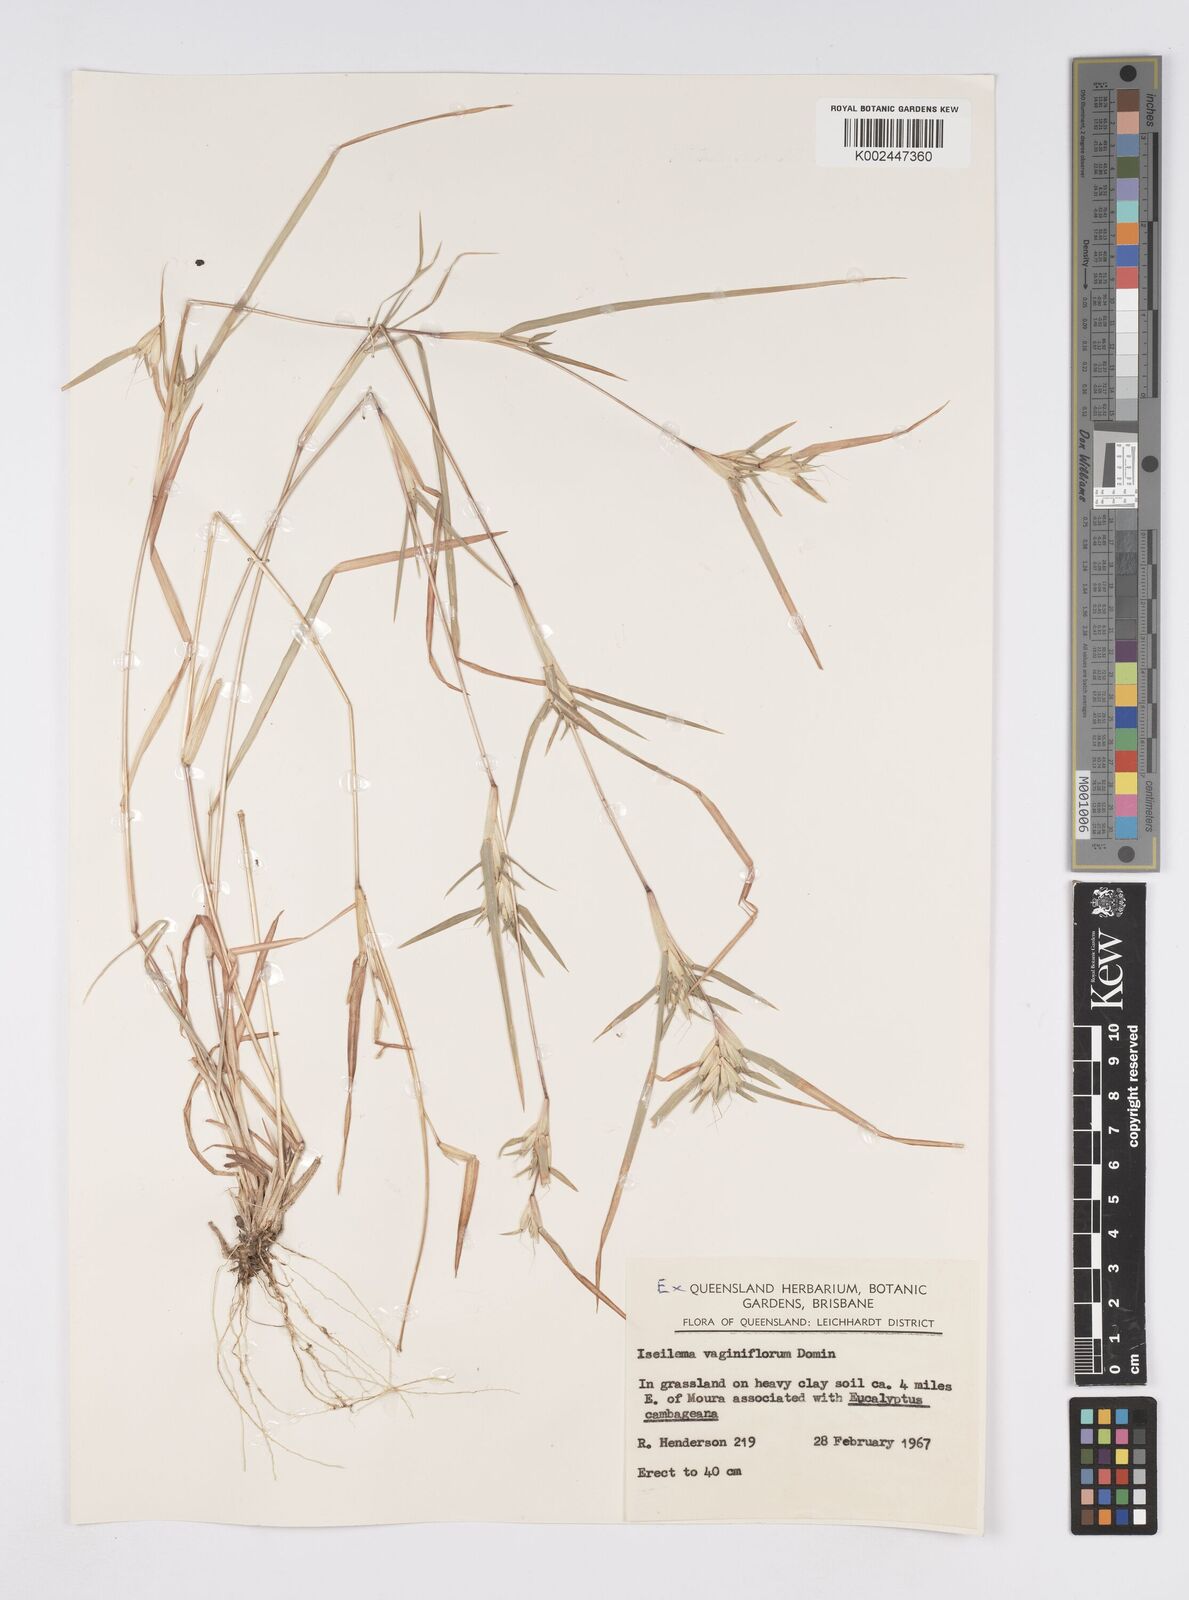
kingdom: Plantae
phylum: Tracheophyta
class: Liliopsida
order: Poales
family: Poaceae
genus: Iseilema
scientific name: Iseilema vaginiflorum
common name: Red flinders grass
